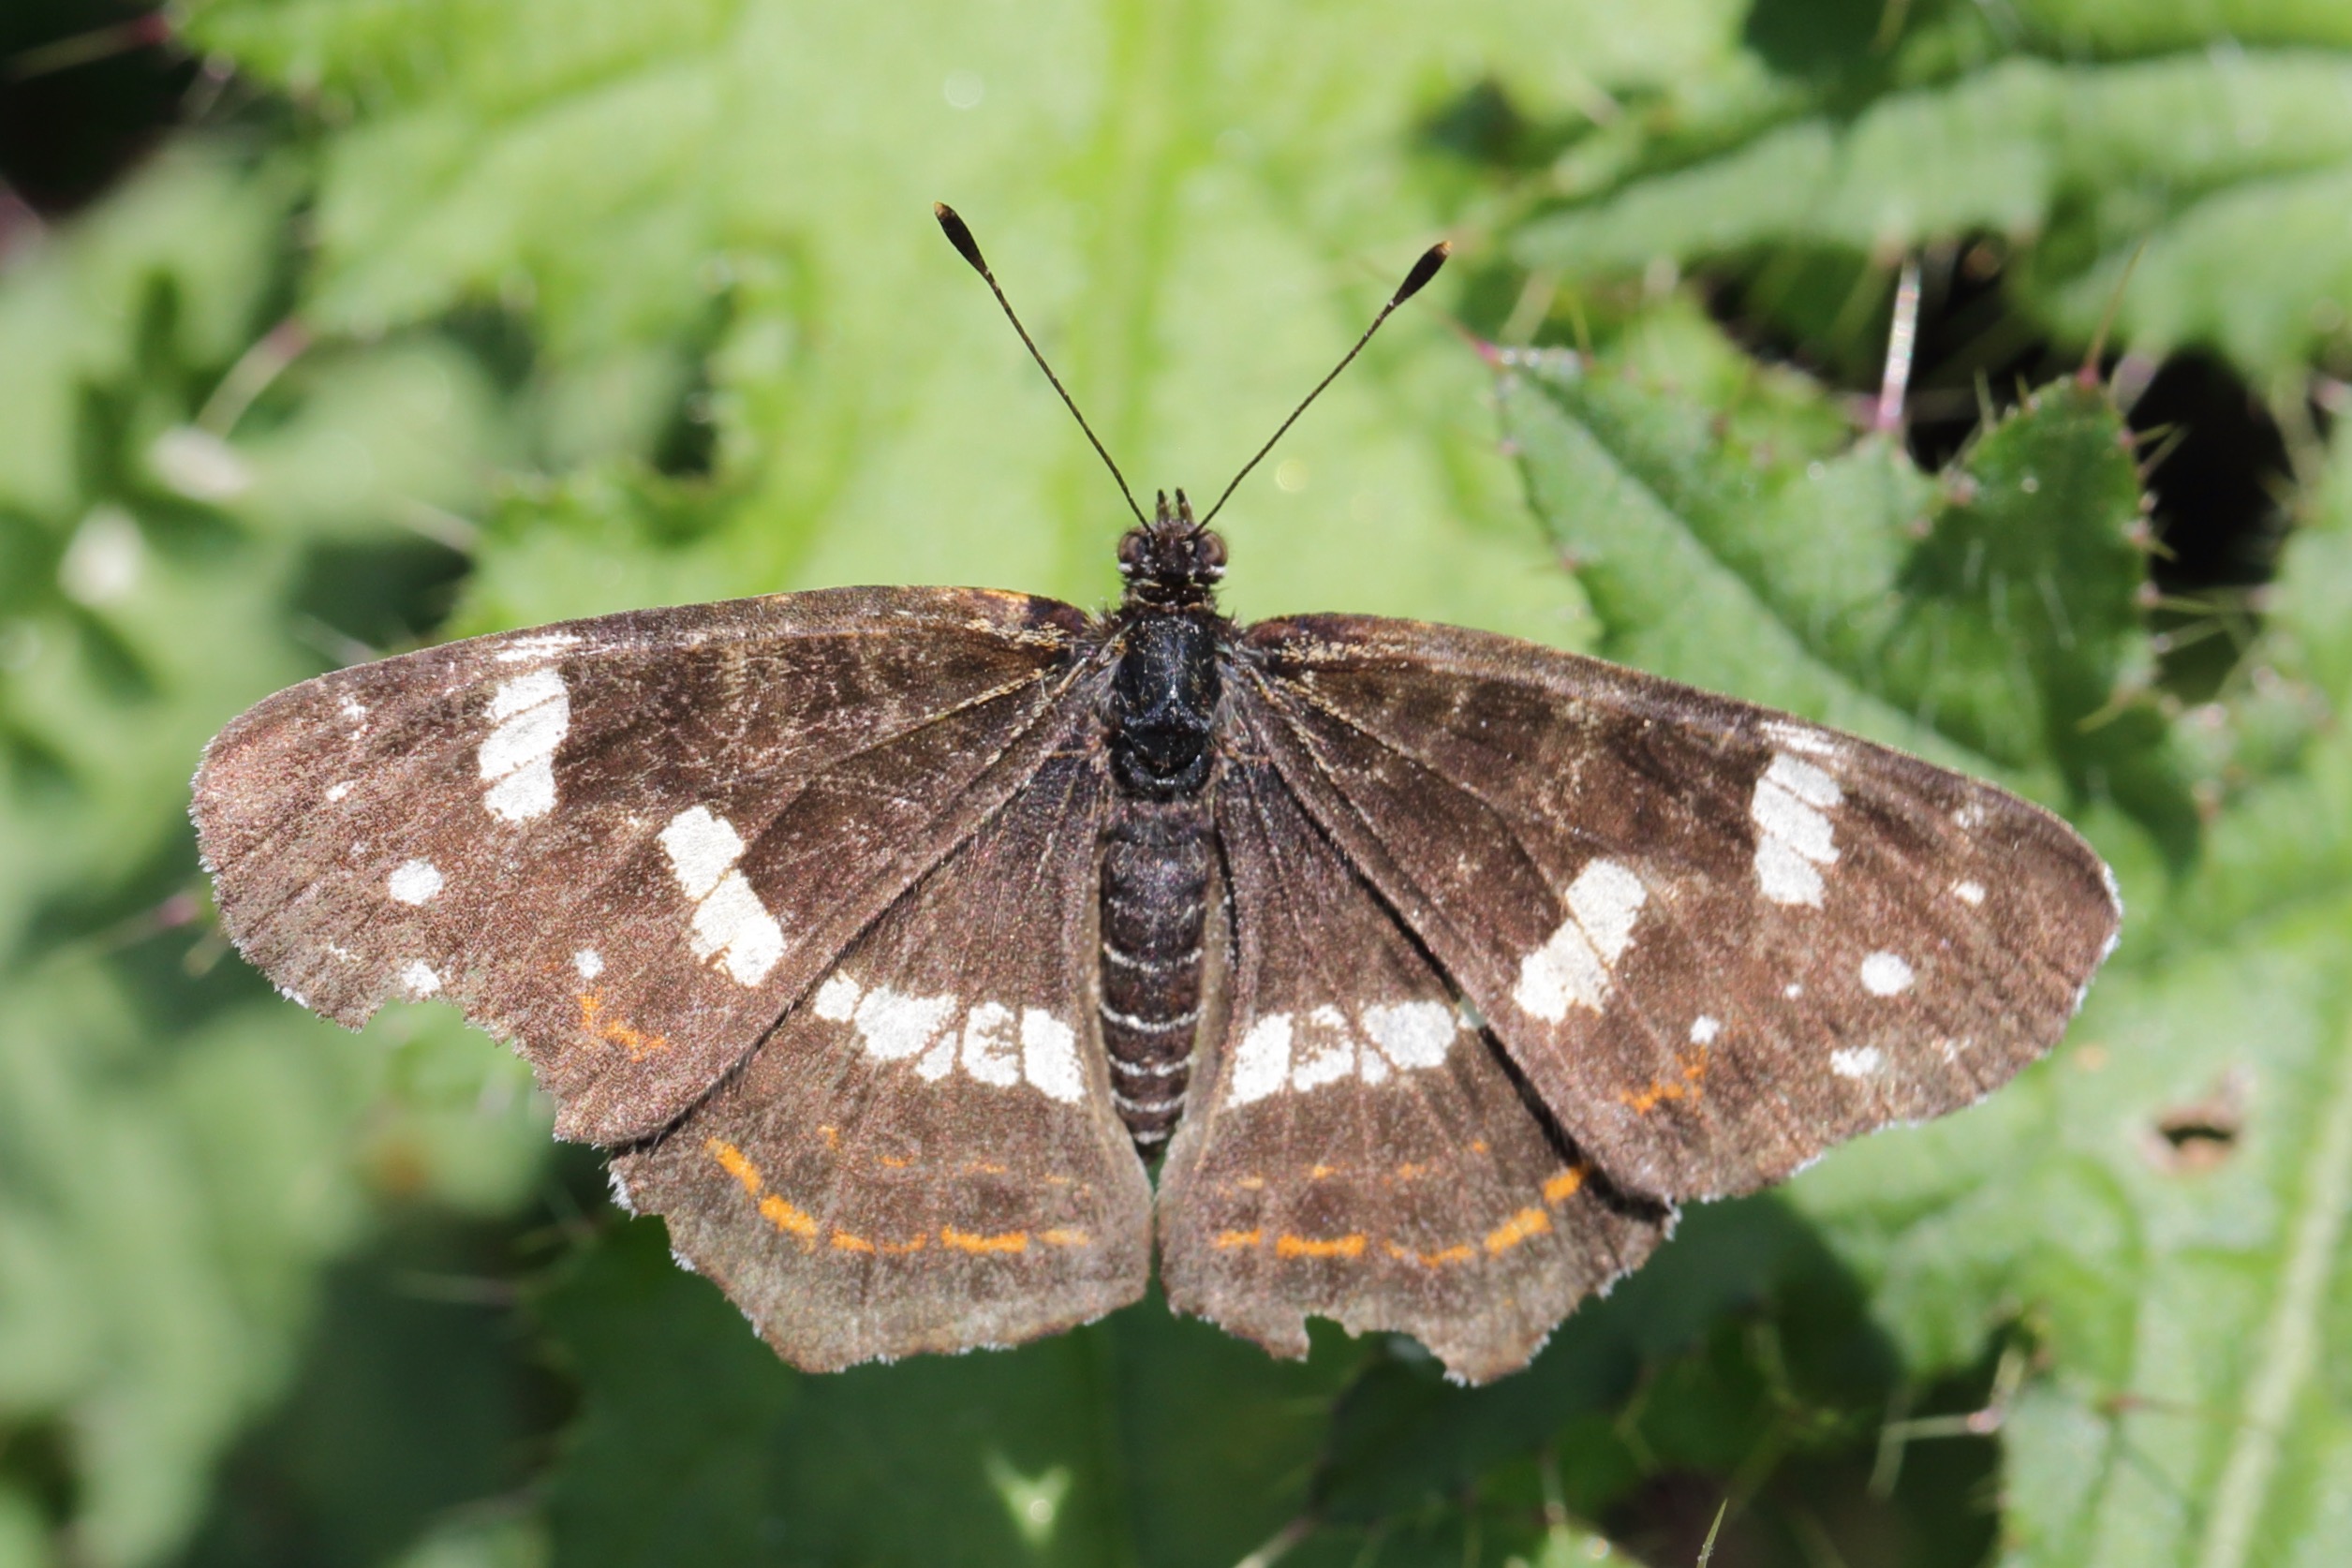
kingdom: Animalia
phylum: Arthropoda
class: Insecta
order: Lepidoptera
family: Nymphalidae
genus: Araschnia
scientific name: Araschnia levana
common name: Nældesommerfugl
